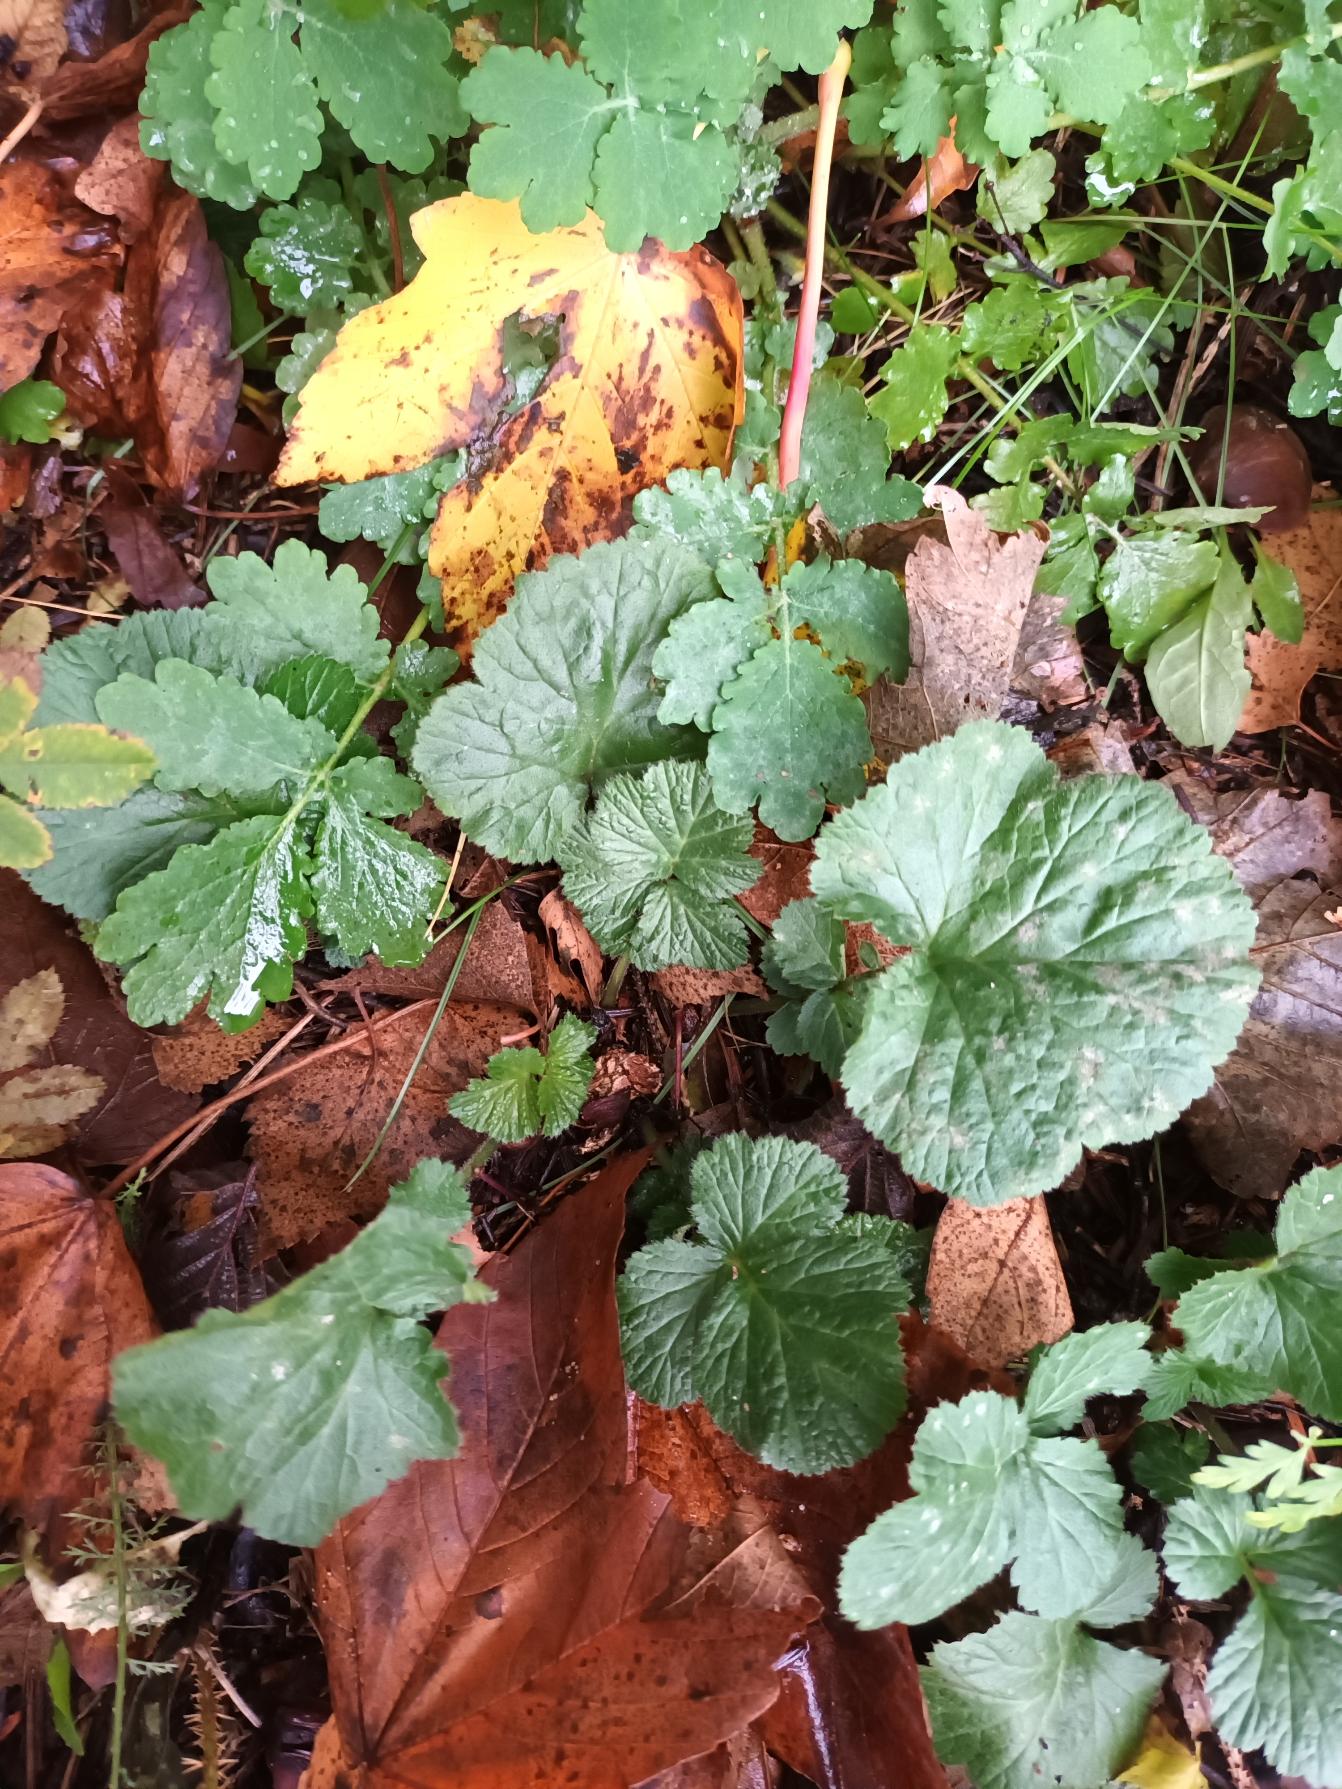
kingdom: Plantae
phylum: Tracheophyta
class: Magnoliopsida
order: Rosales
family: Rosaceae
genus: Geum
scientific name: Geum urbanum
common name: Feber-nellikerod
